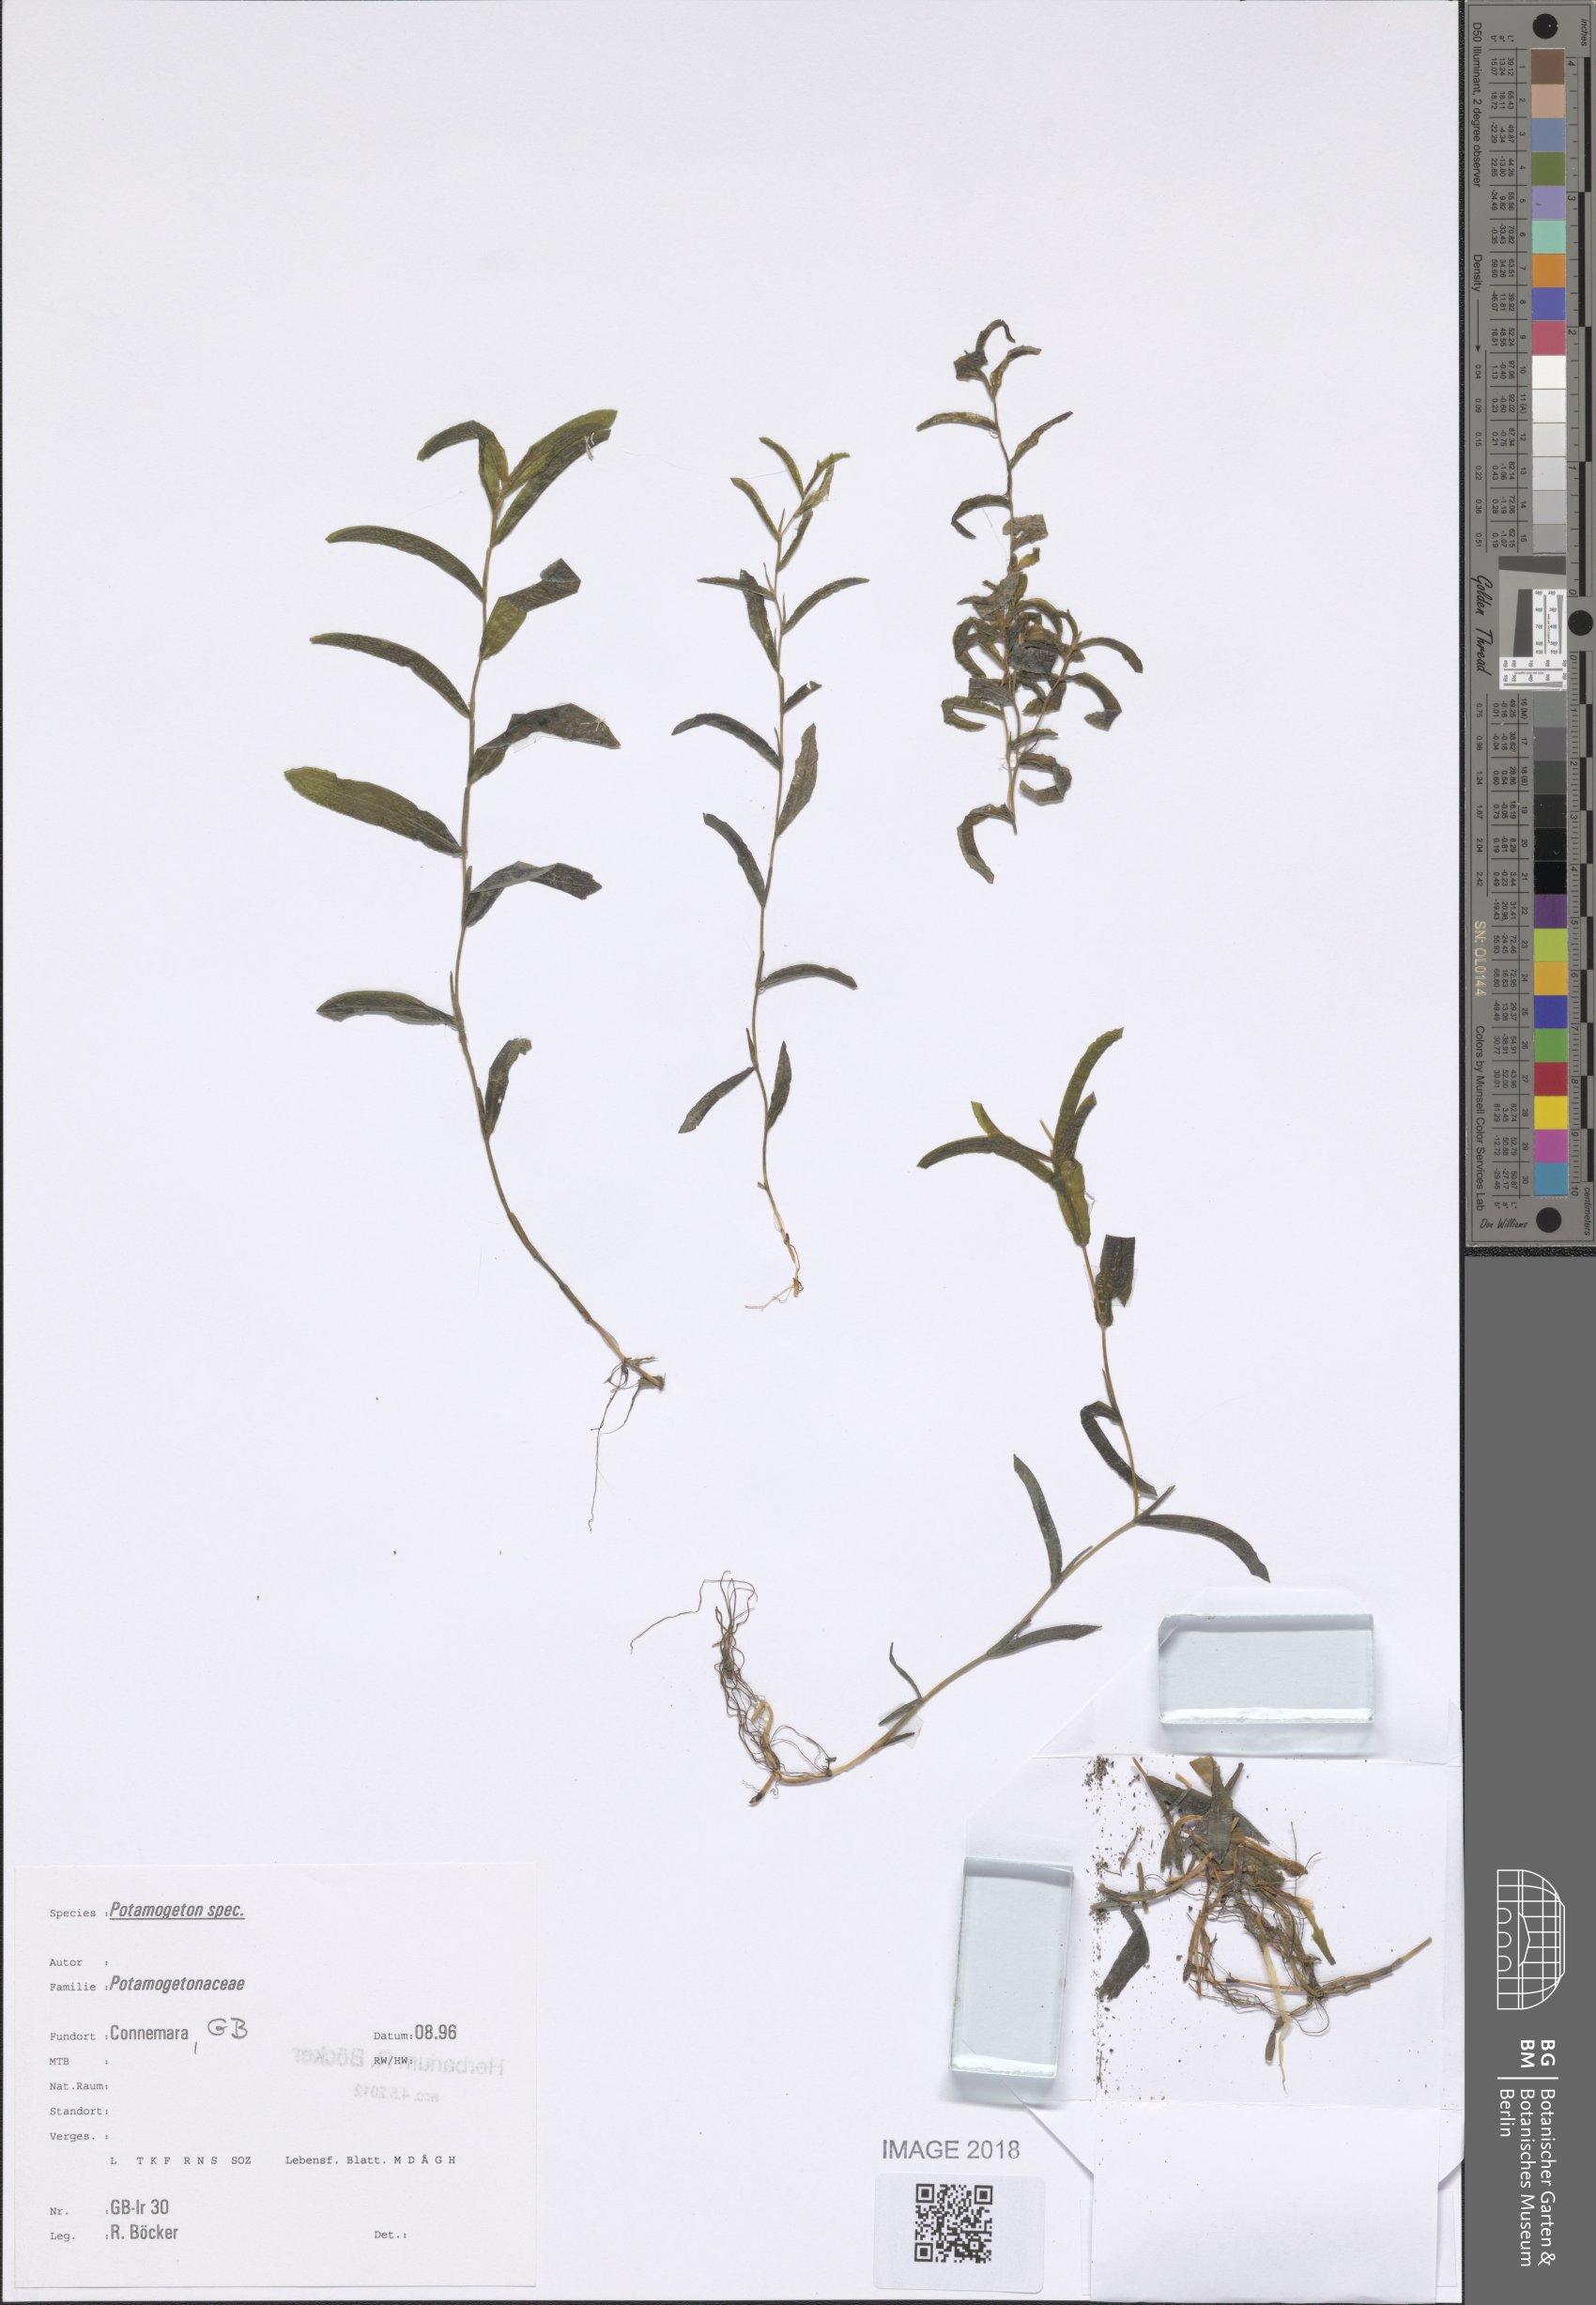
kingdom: Plantae
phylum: Tracheophyta
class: Liliopsida
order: Alismatales
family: Potamogetonaceae
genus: Potamogeton
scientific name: Potamogeton gramineus
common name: Various-leaved pondweed
